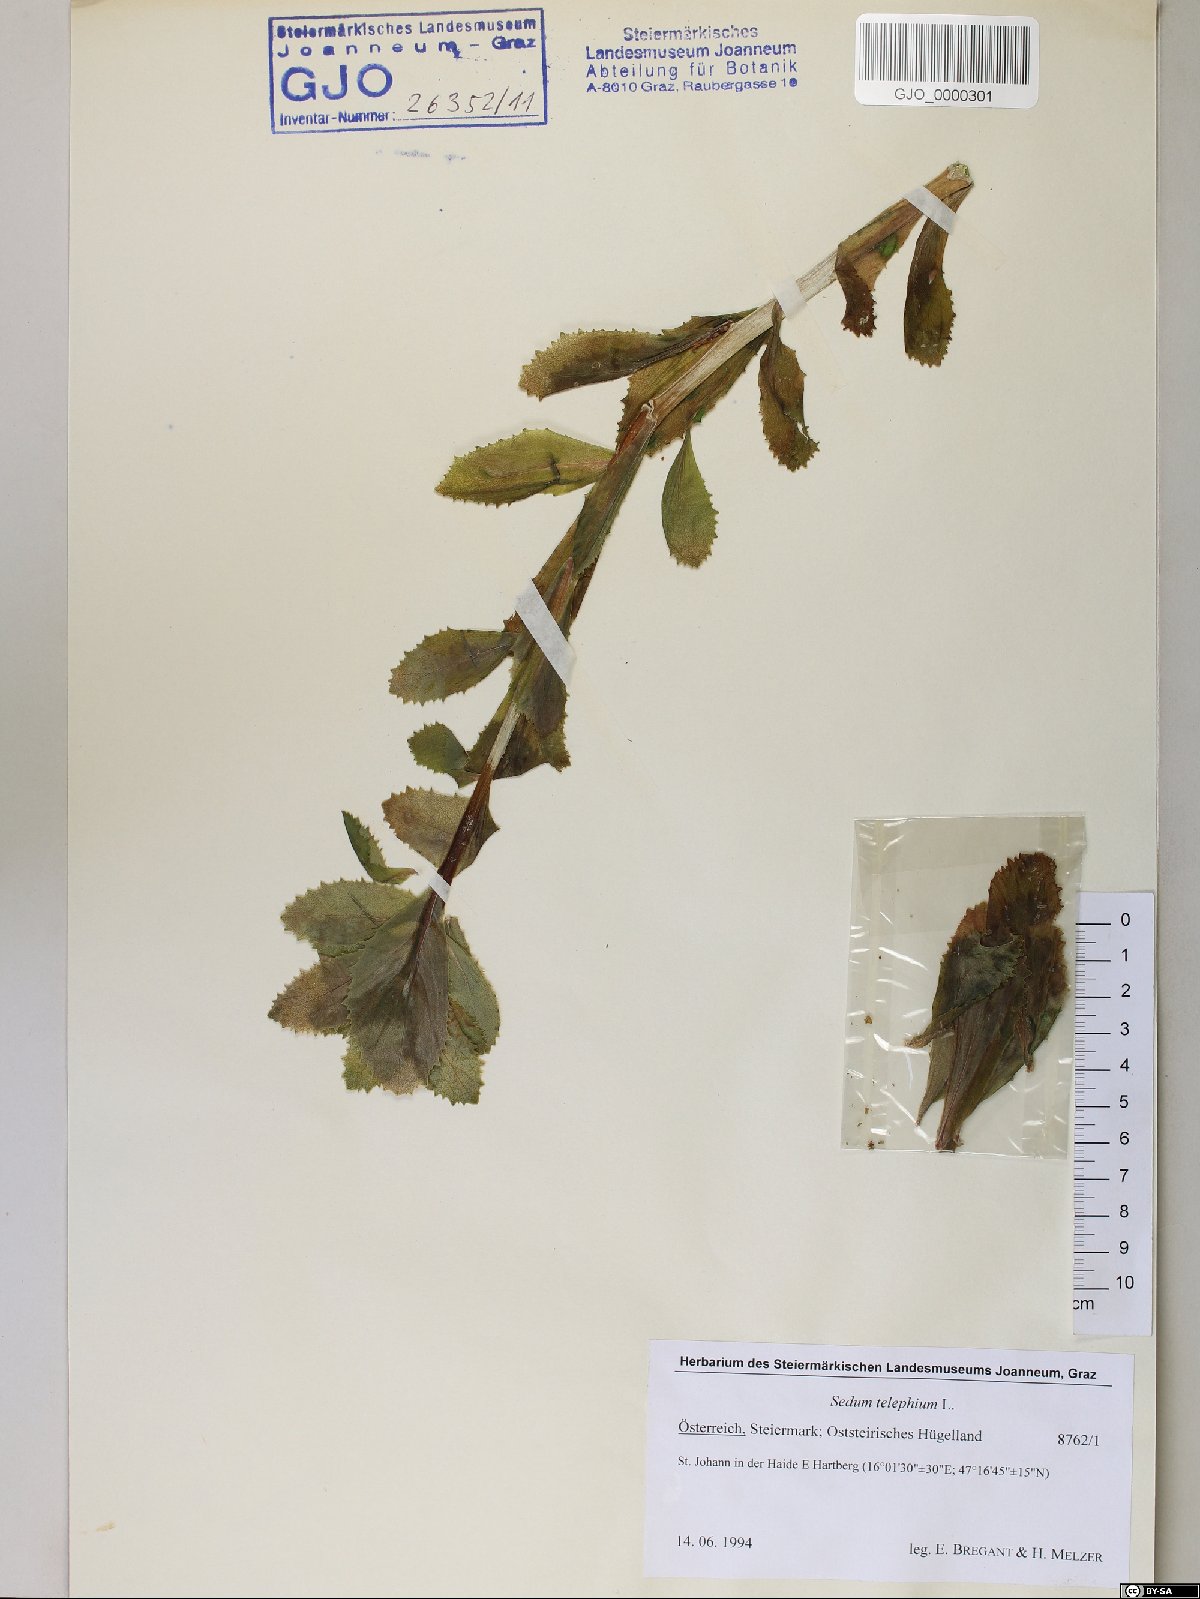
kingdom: Plantae
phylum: Tracheophyta
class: Magnoliopsida
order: Saxifragales
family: Crassulaceae
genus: Hylotelephium
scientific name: Hylotelephium telephium
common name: Live-forever
